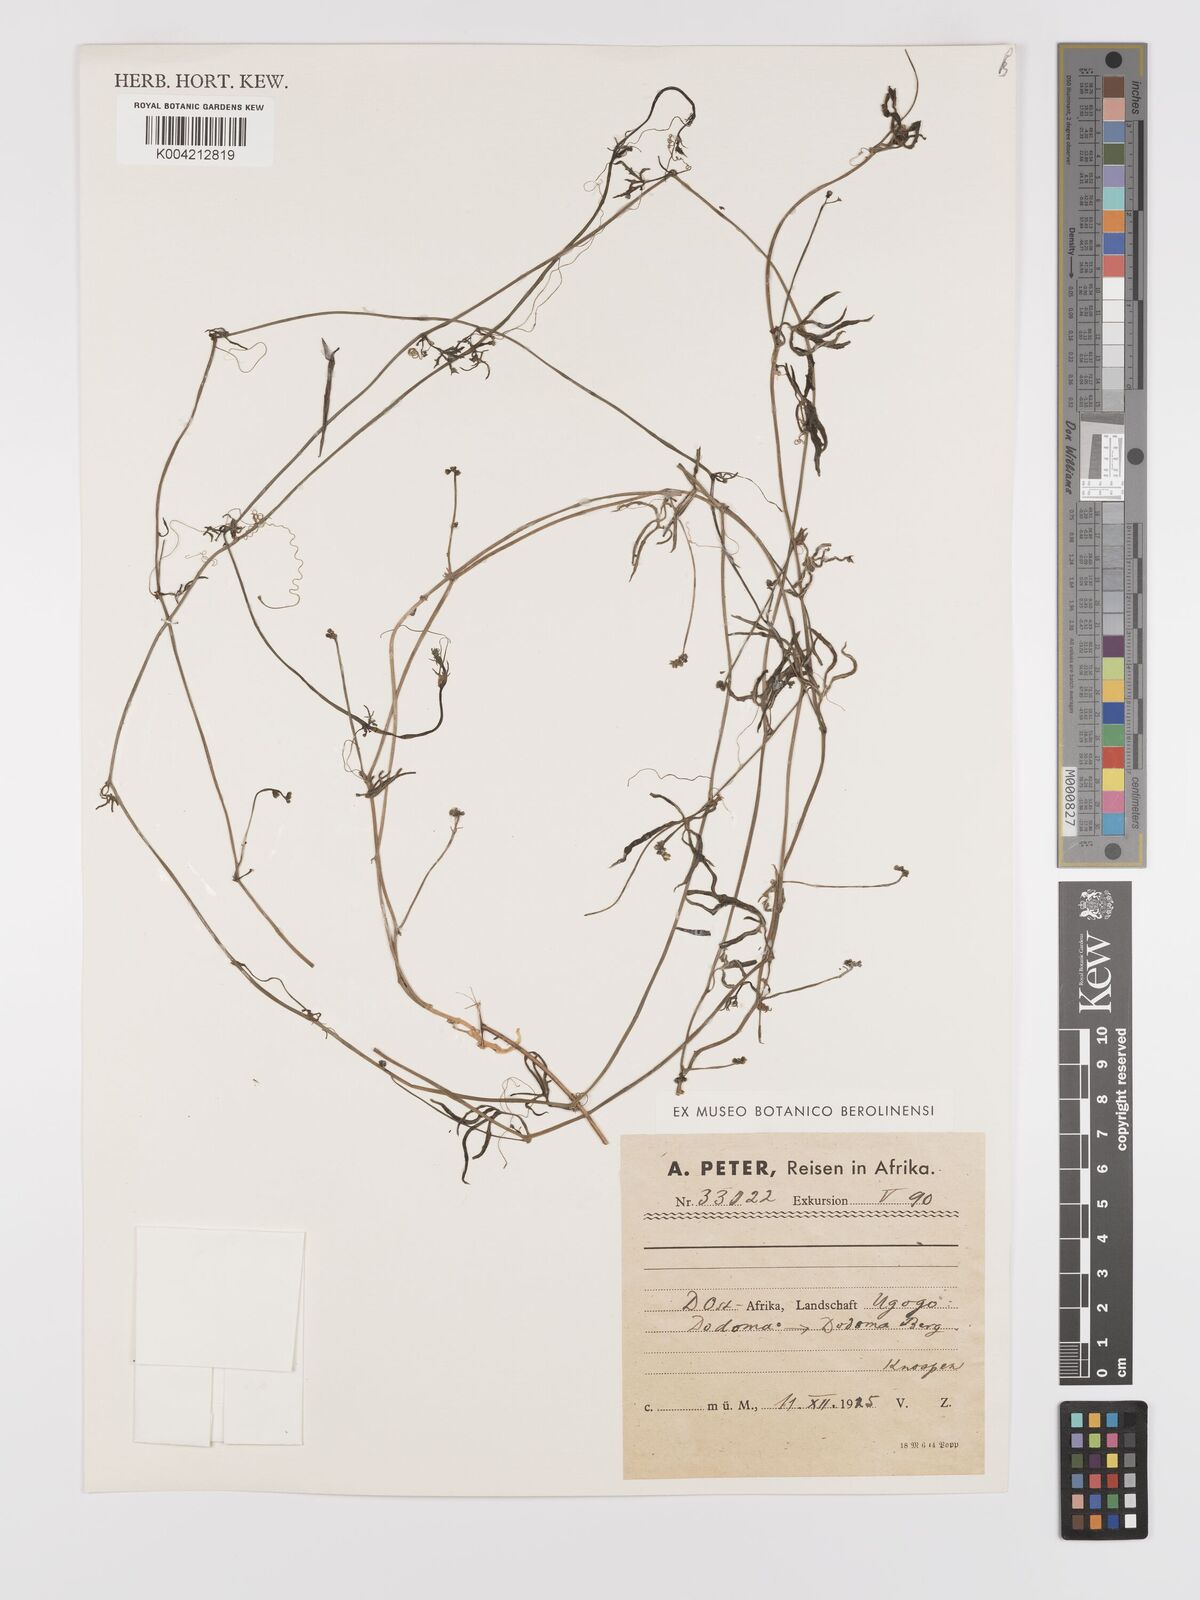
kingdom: Plantae
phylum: Tracheophyta
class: Magnoliopsida
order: Cucurbitales
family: Cucurbitaceae
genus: Corallocarpus
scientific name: Corallocarpus tenuissimus
